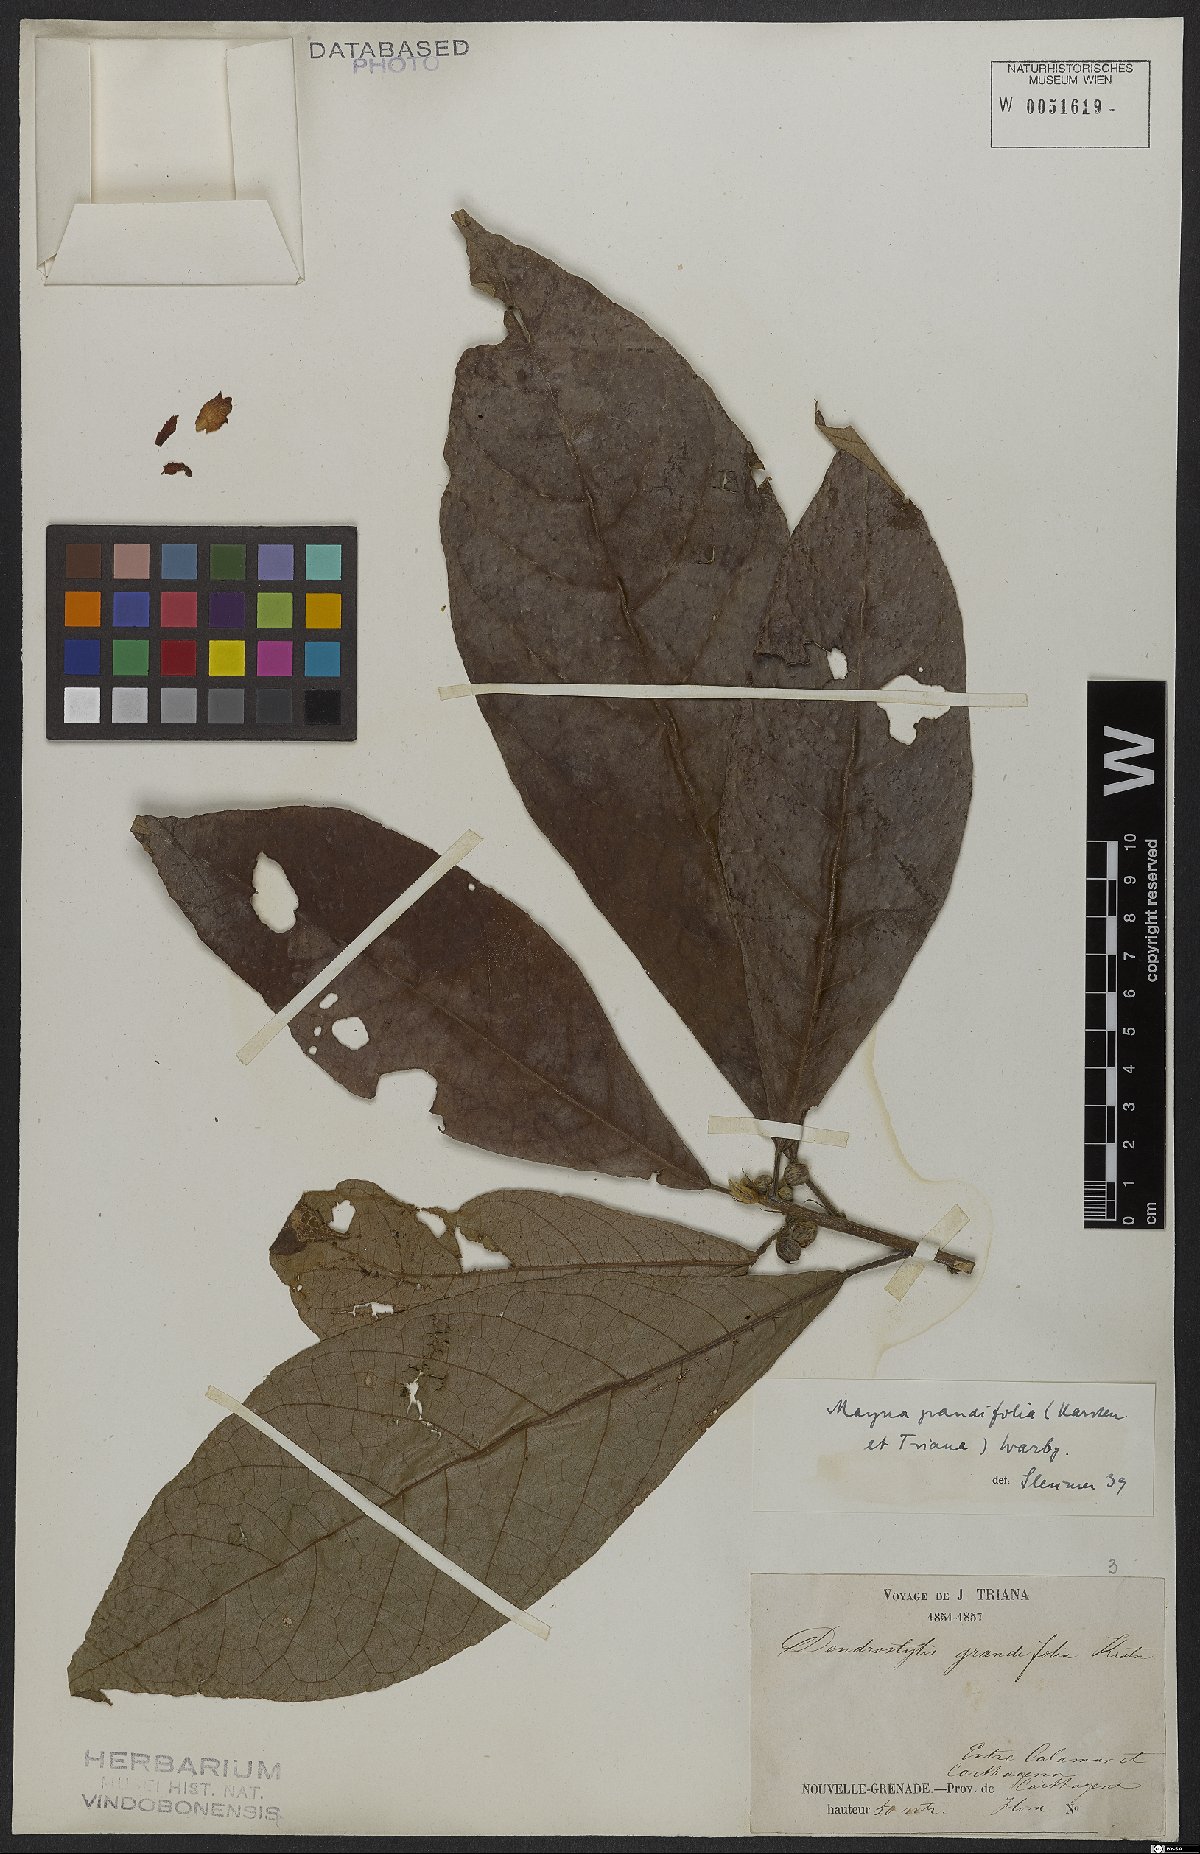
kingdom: Plantae
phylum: Tracheophyta
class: Magnoliopsida
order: Malpighiales
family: Achariaceae
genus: Mayna
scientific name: Mayna grandifolia
